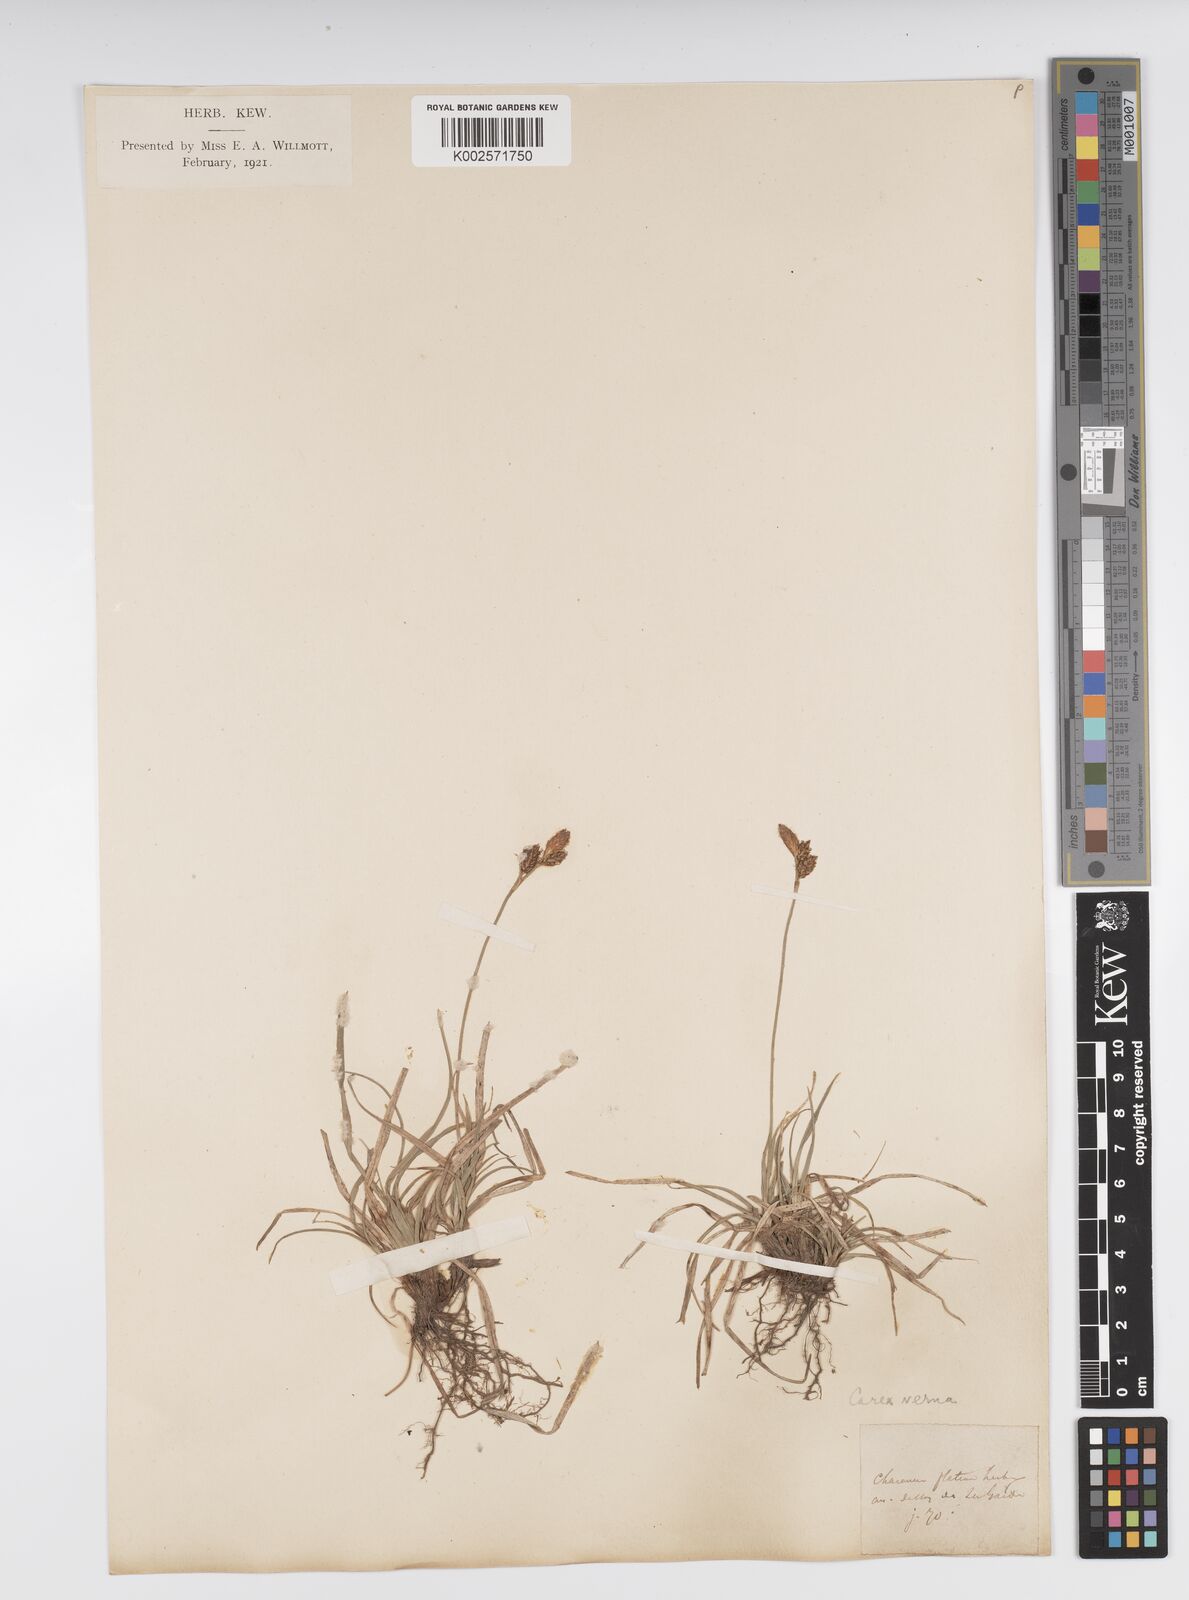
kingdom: Plantae
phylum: Tracheophyta
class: Liliopsida
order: Poales
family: Cyperaceae
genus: Carex
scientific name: Carex caryophyllea
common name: Spring sedge
